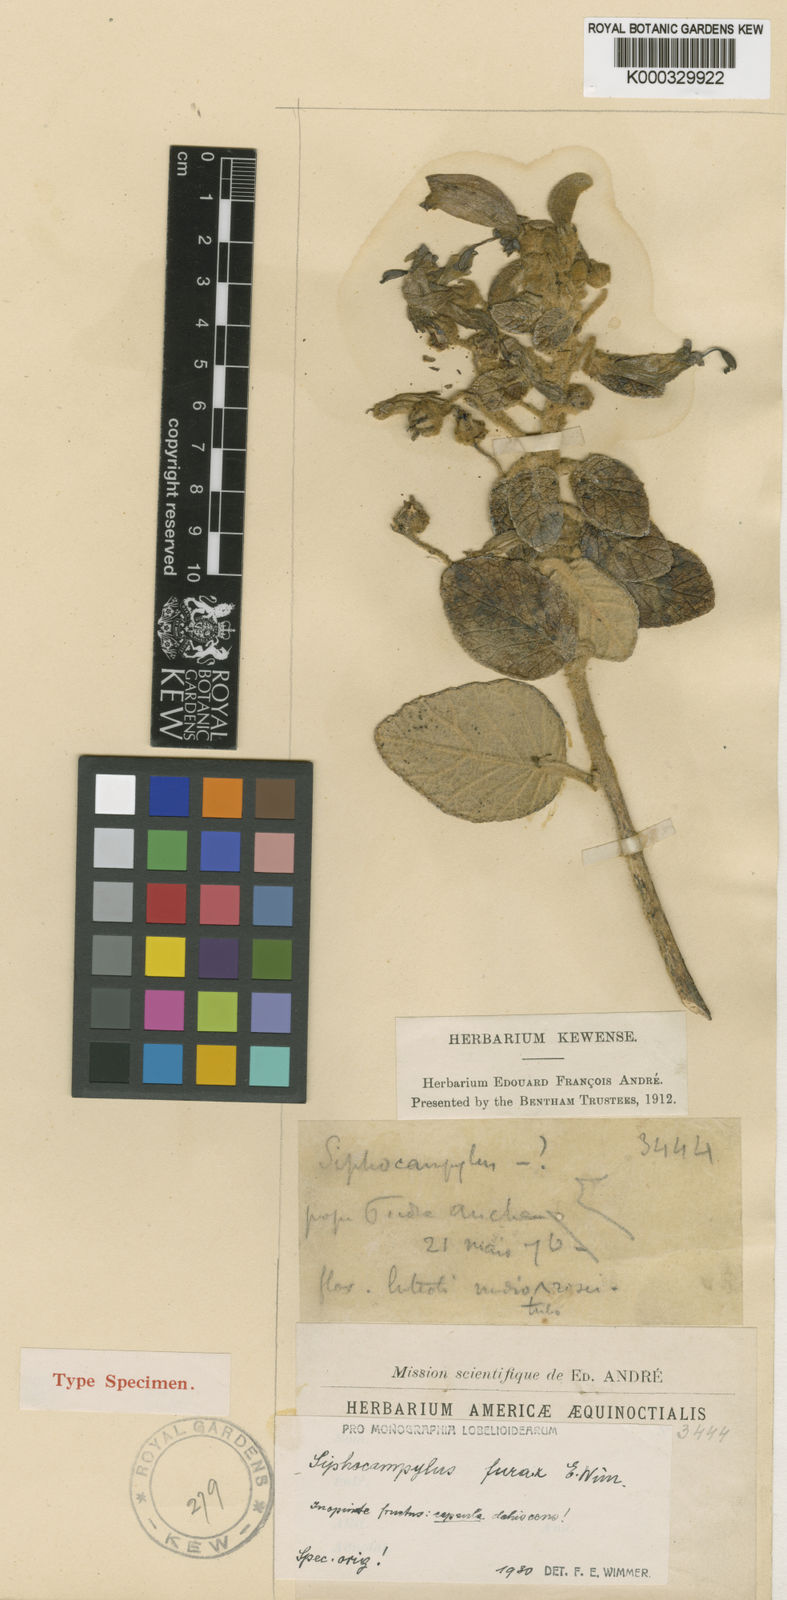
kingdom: Plantae
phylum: Tracheophyta
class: Magnoliopsida
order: Asterales
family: Campanulaceae
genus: Siphocampylus
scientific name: Siphocampylus furax
